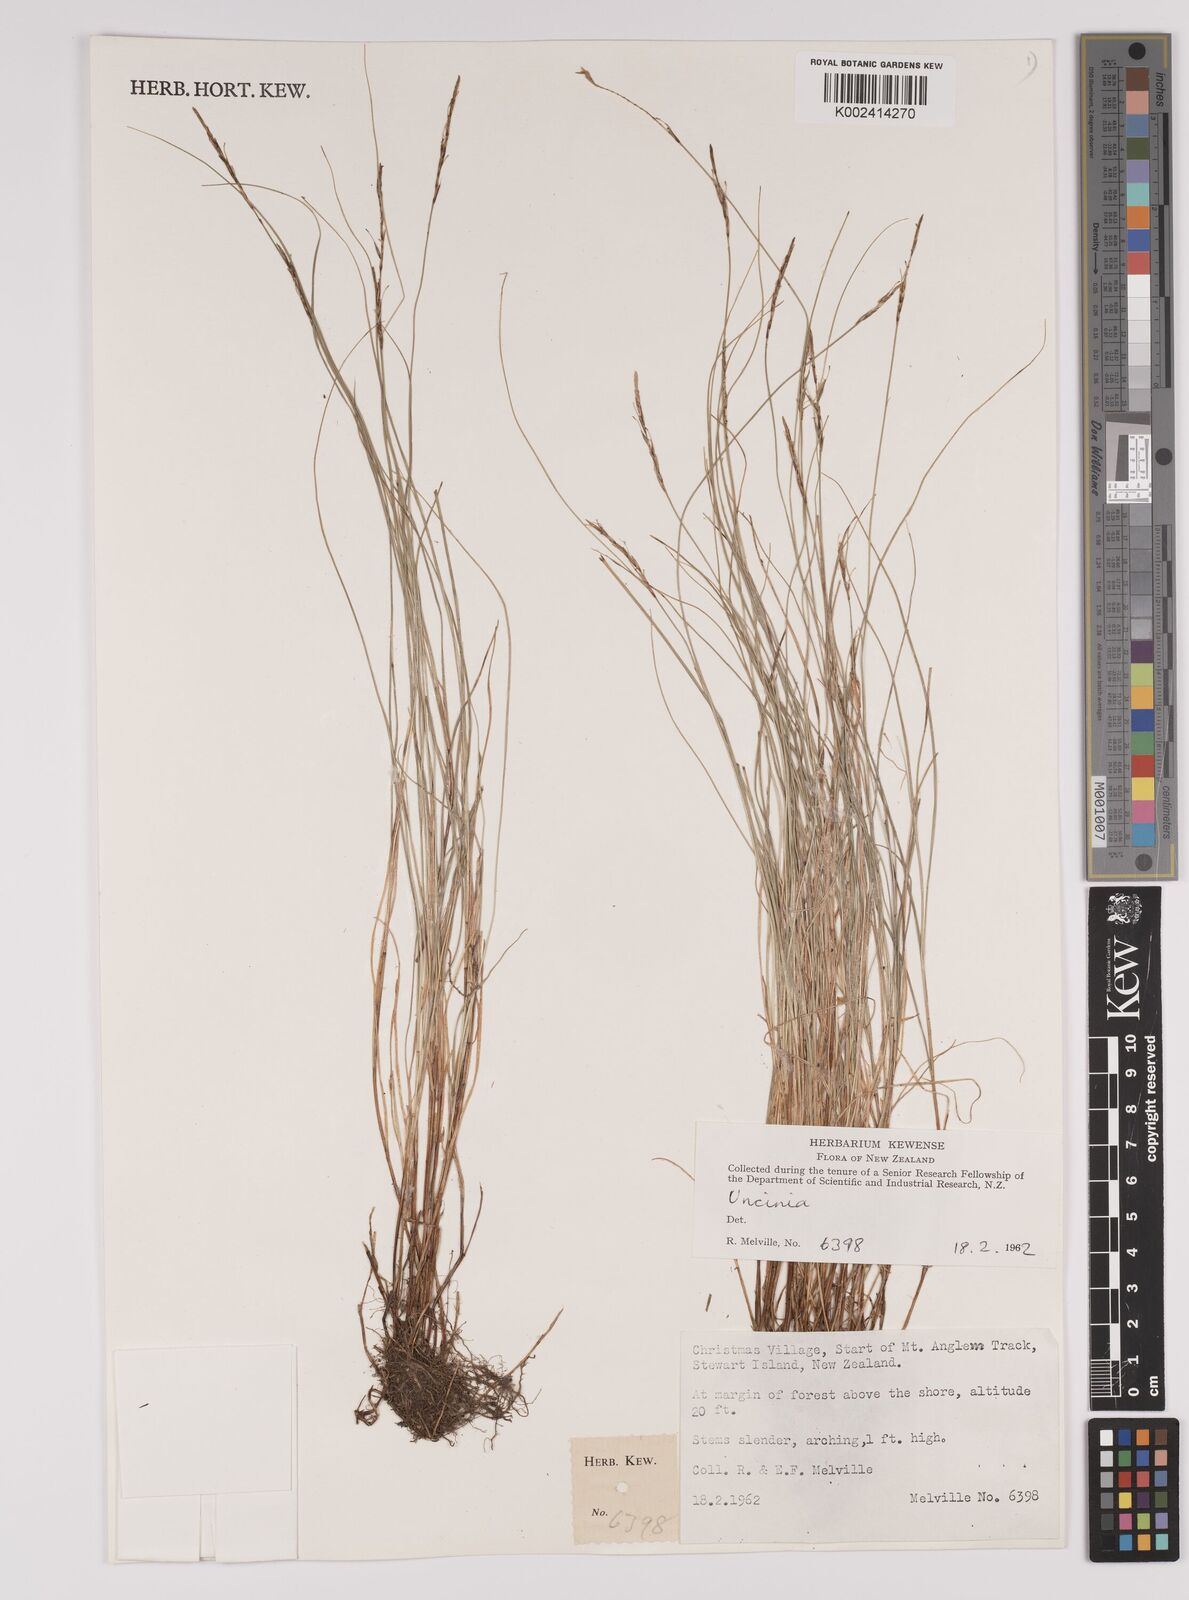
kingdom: Fungi
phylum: Ascomycota
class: Leotiomycetes
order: Helotiales
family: Hamatocanthoscyphaceae
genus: Uncinia
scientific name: Uncinia
